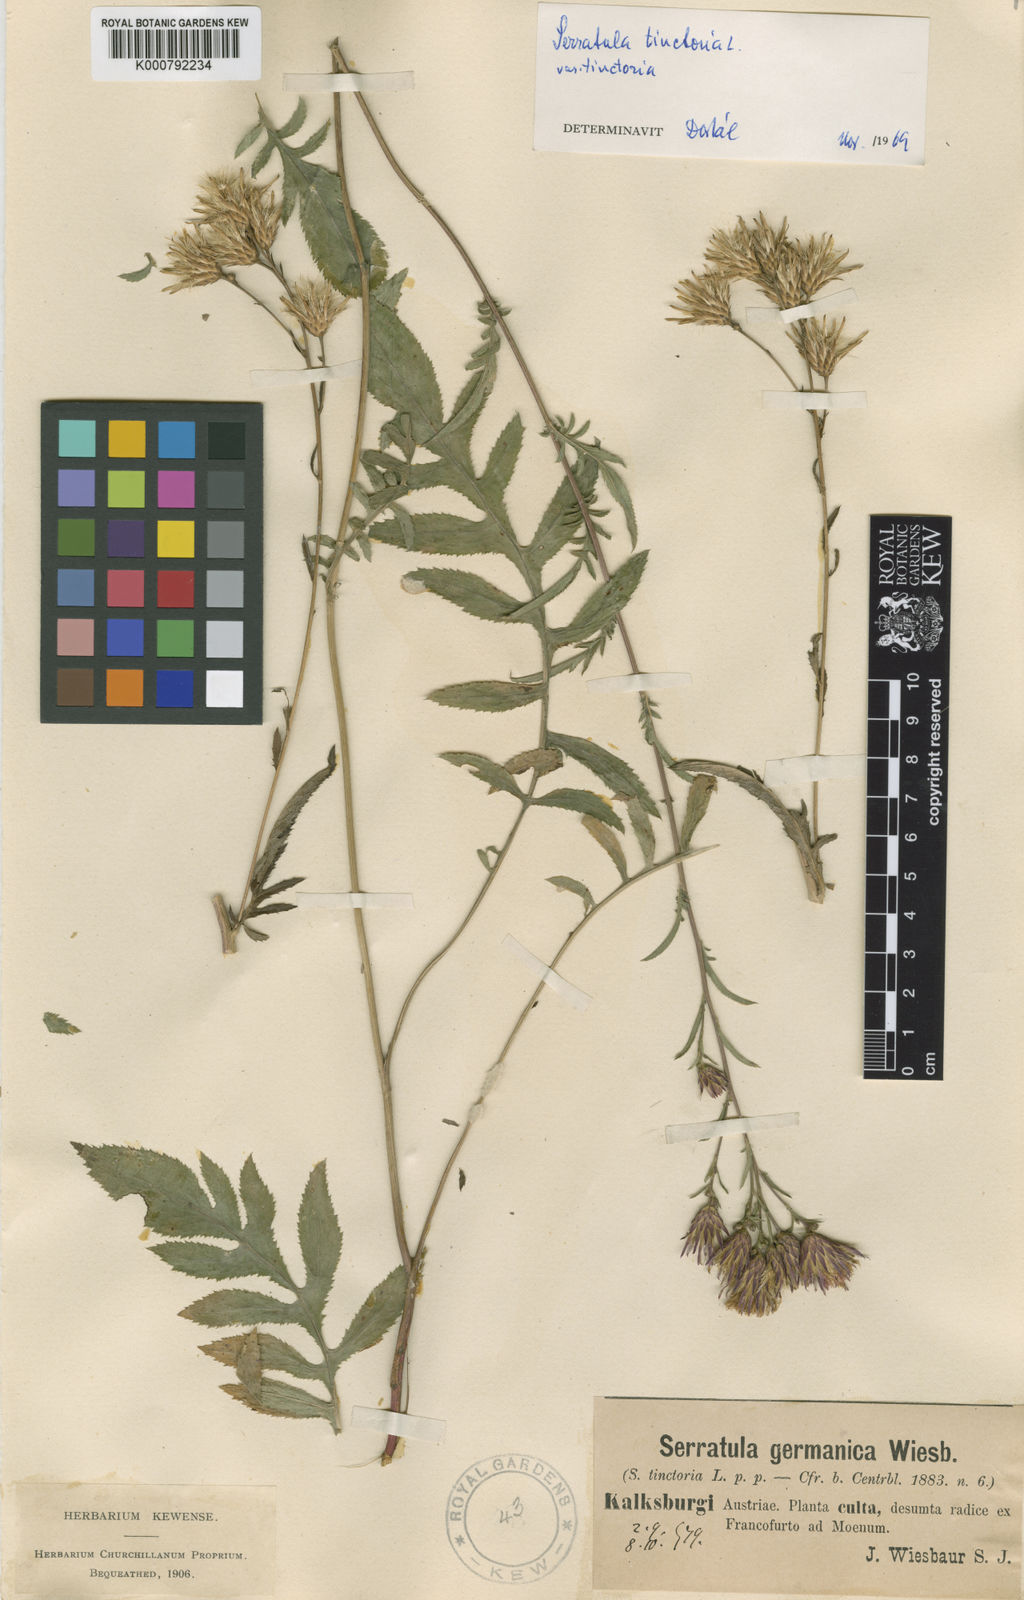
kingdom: Plantae
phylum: Tracheophyta
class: Magnoliopsida
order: Asterales
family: Asteraceae
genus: Serratula
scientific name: Serratula tinctoria
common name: Saw-wort
